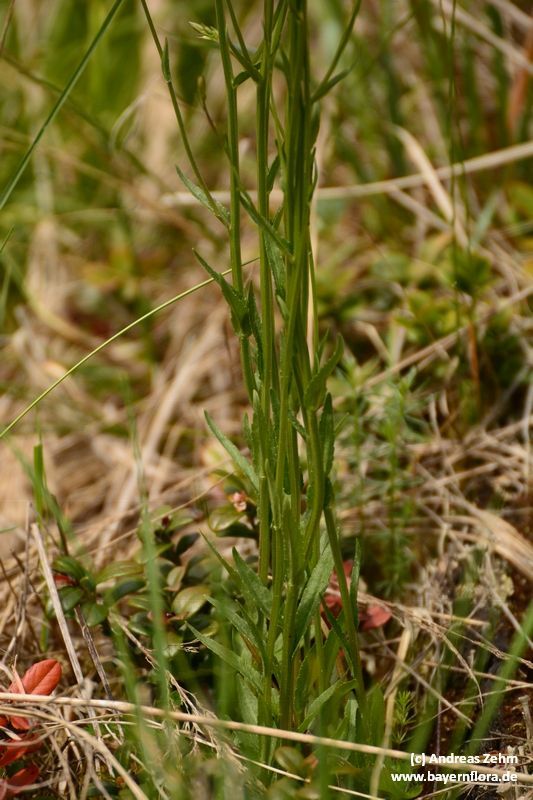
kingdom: Plantae
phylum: Tracheophyta
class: Magnoliopsida
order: Asterales
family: Campanulaceae
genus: Campanula
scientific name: Campanula patula
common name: Spreading bellflower
